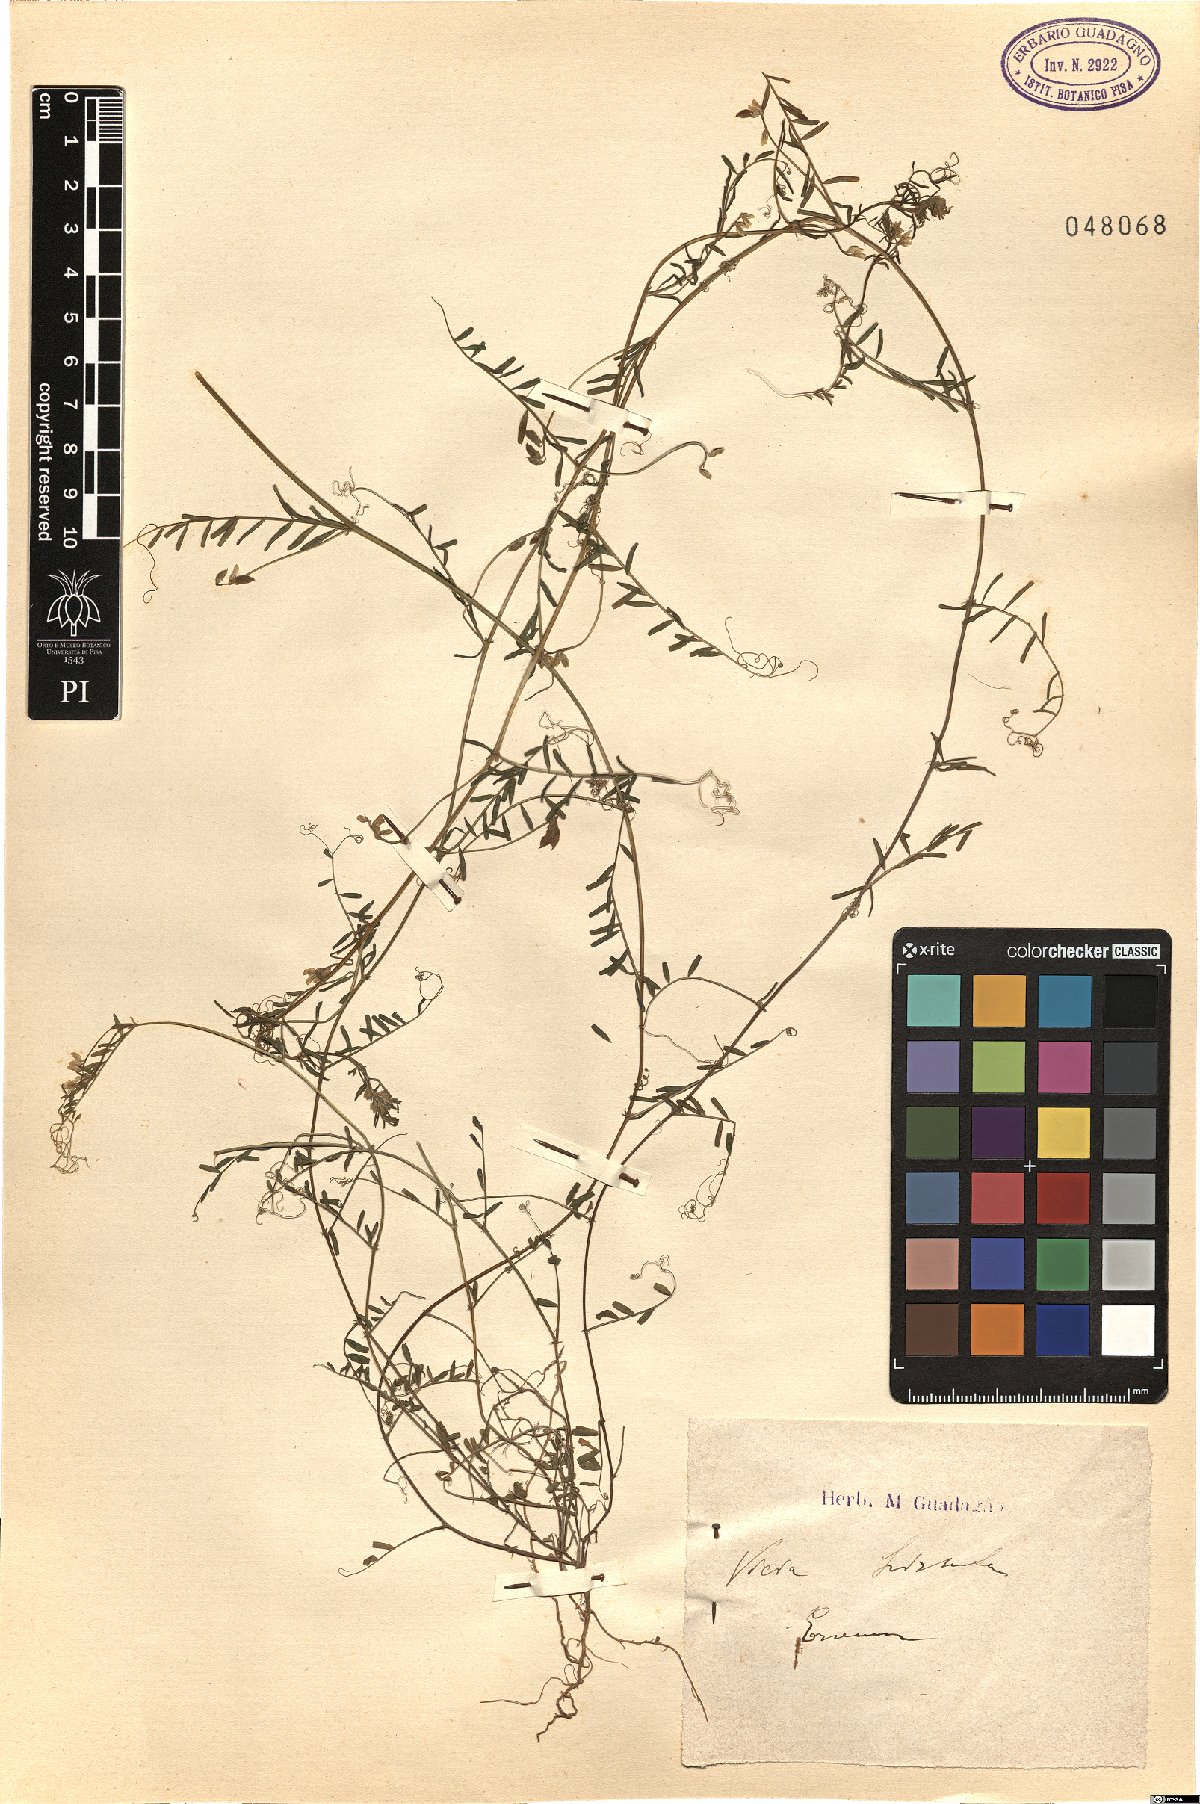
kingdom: Plantae
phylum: Tracheophyta
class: Magnoliopsida
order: Fabales
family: Fabaceae
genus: Vicia
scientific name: Vicia hirsuta
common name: Tiny vetch
